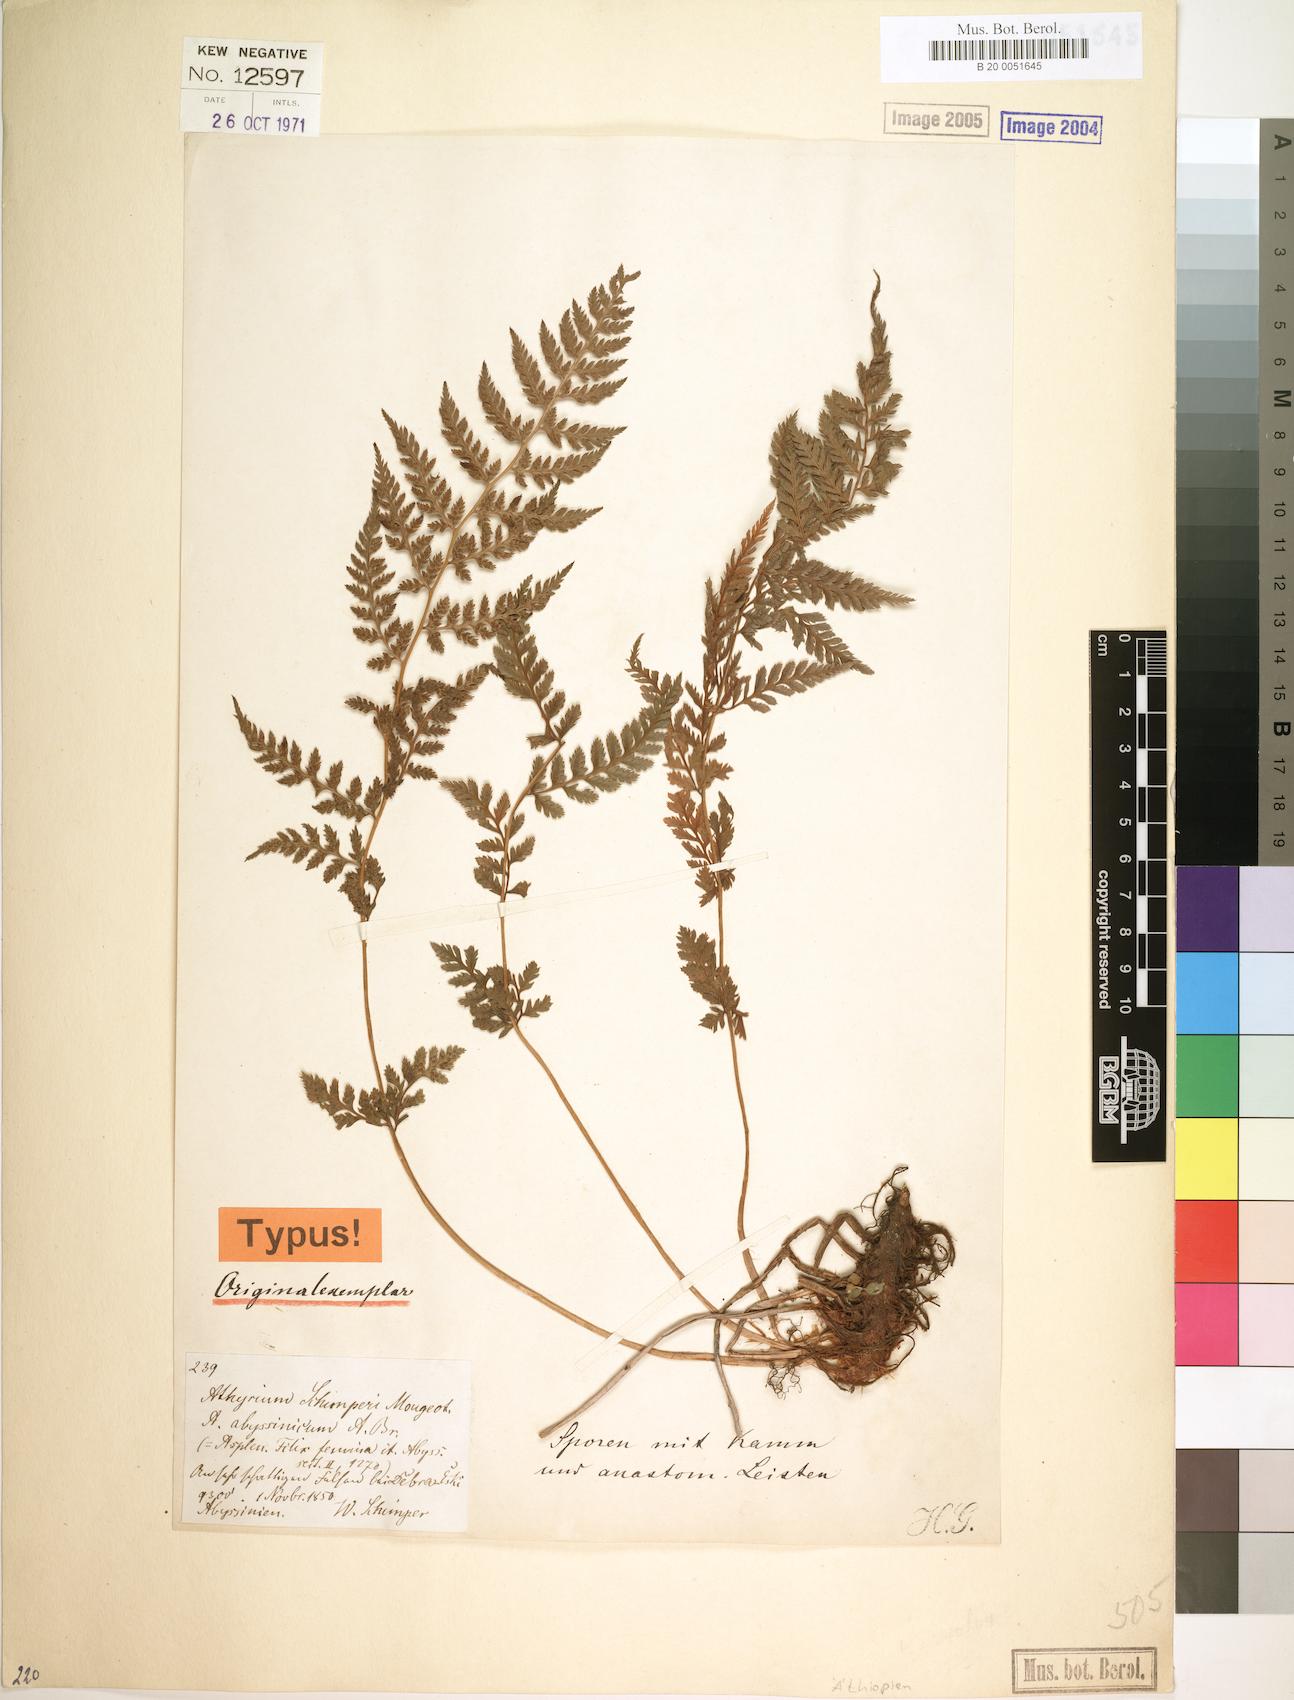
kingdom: Plantae
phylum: Tracheophyta
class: Polypodiopsida
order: Polypodiales
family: Athyriaceae
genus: Athyrium
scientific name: Athyrium schimperi
